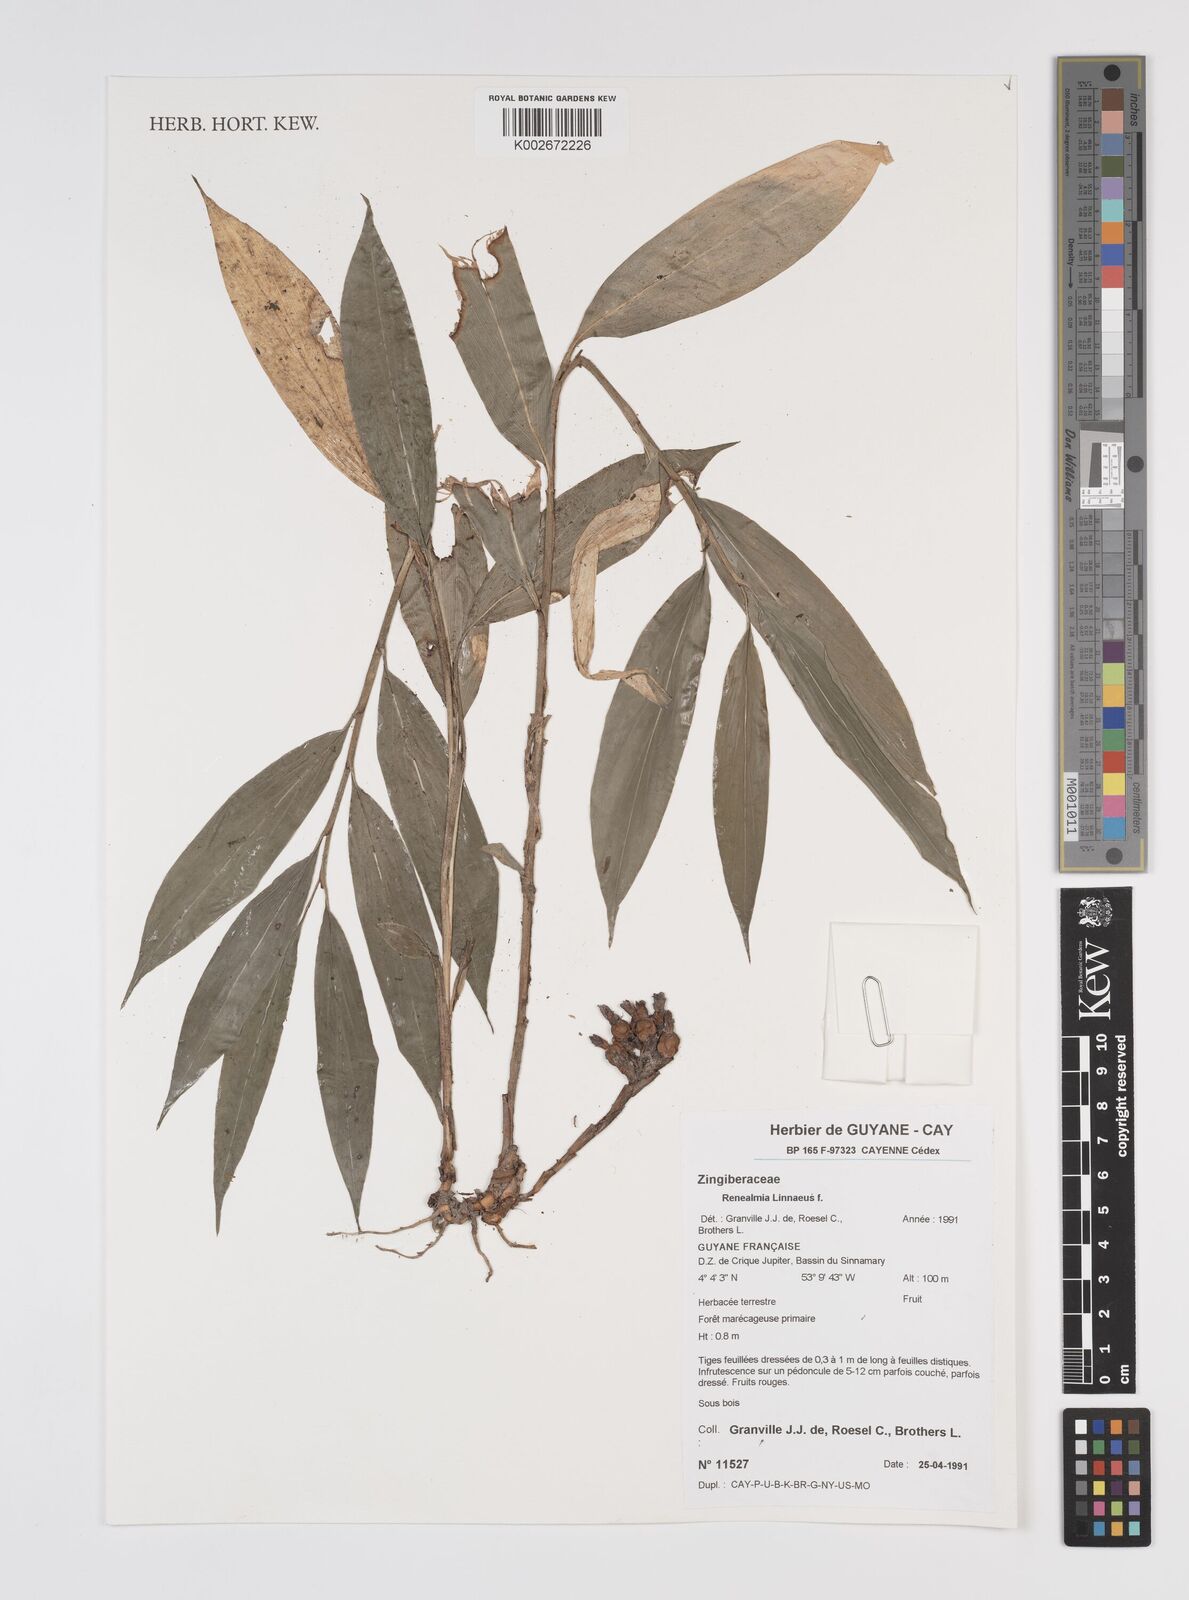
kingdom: Plantae
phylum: Tracheophyta
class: Liliopsida
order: Zingiberales
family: Zingiberaceae
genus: Renealmia
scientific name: Renealmia
